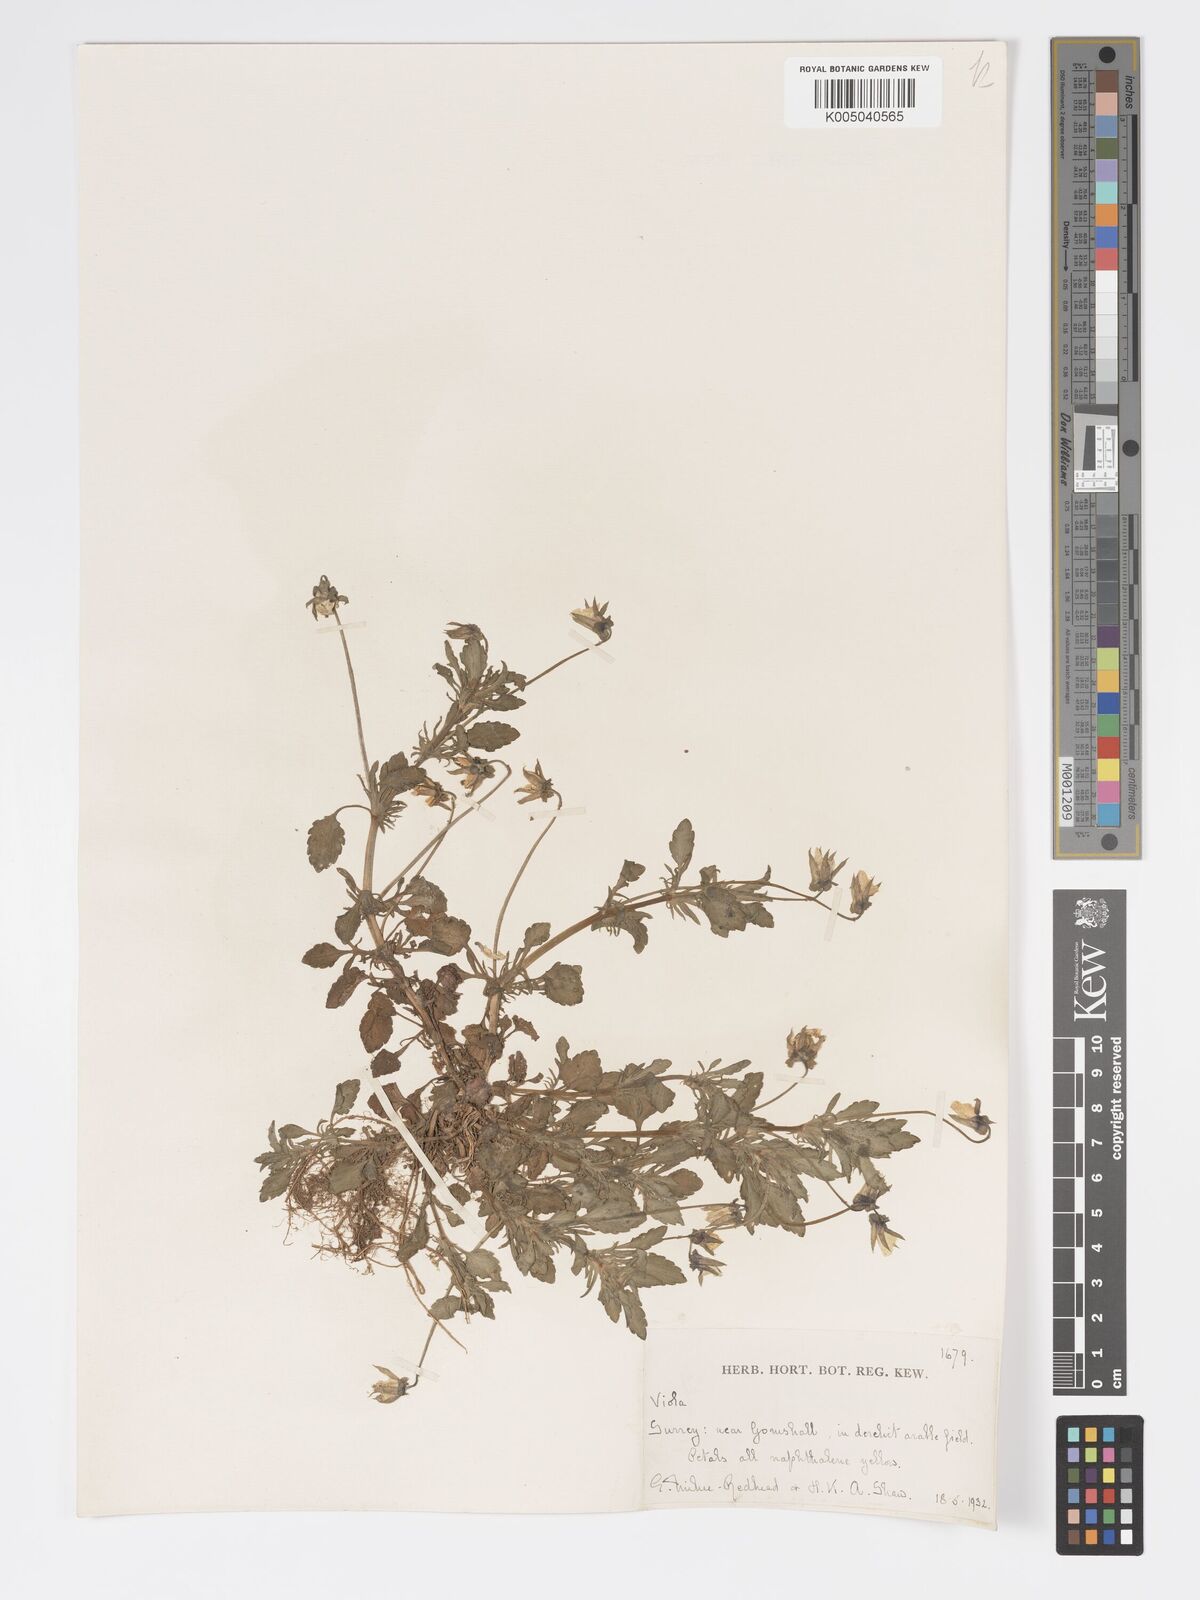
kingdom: Plantae
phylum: Tracheophyta
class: Magnoliopsida
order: Malpighiales
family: Violaceae
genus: Viola
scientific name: Viola
